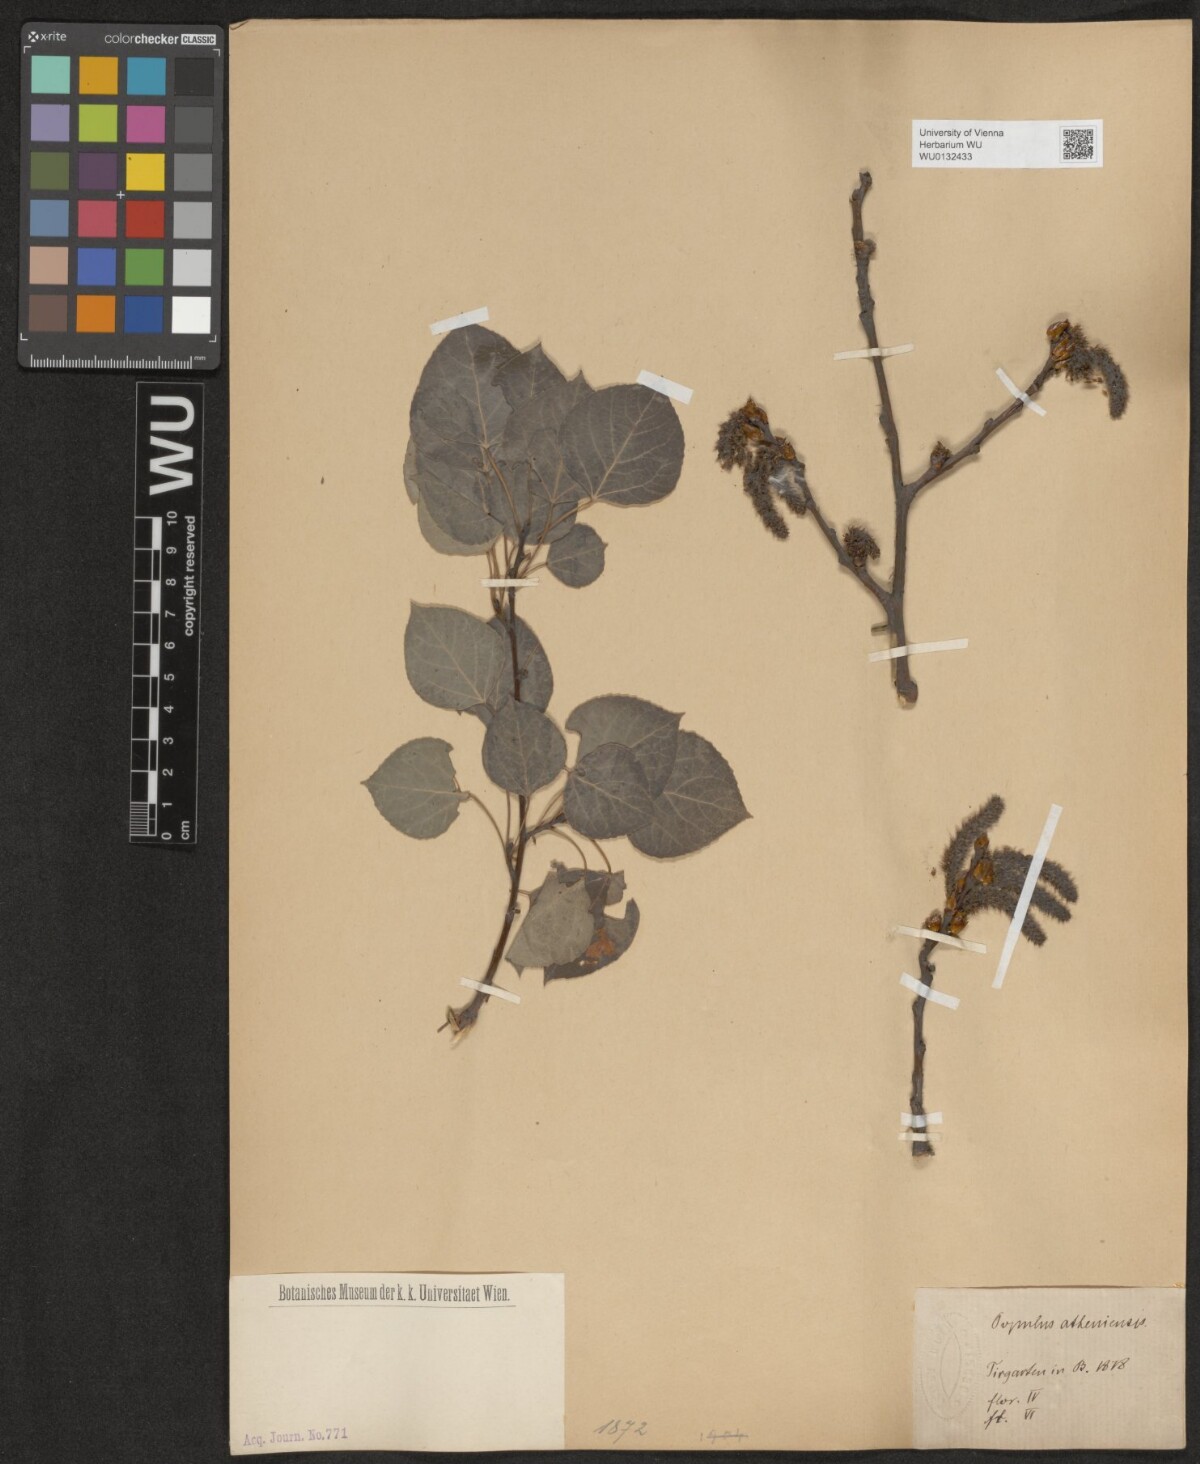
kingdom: Plantae
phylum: Tracheophyta
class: Magnoliopsida
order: Malpighiales
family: Salicaceae
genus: Populus
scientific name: Populus tremuloides
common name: Quaking aspen
